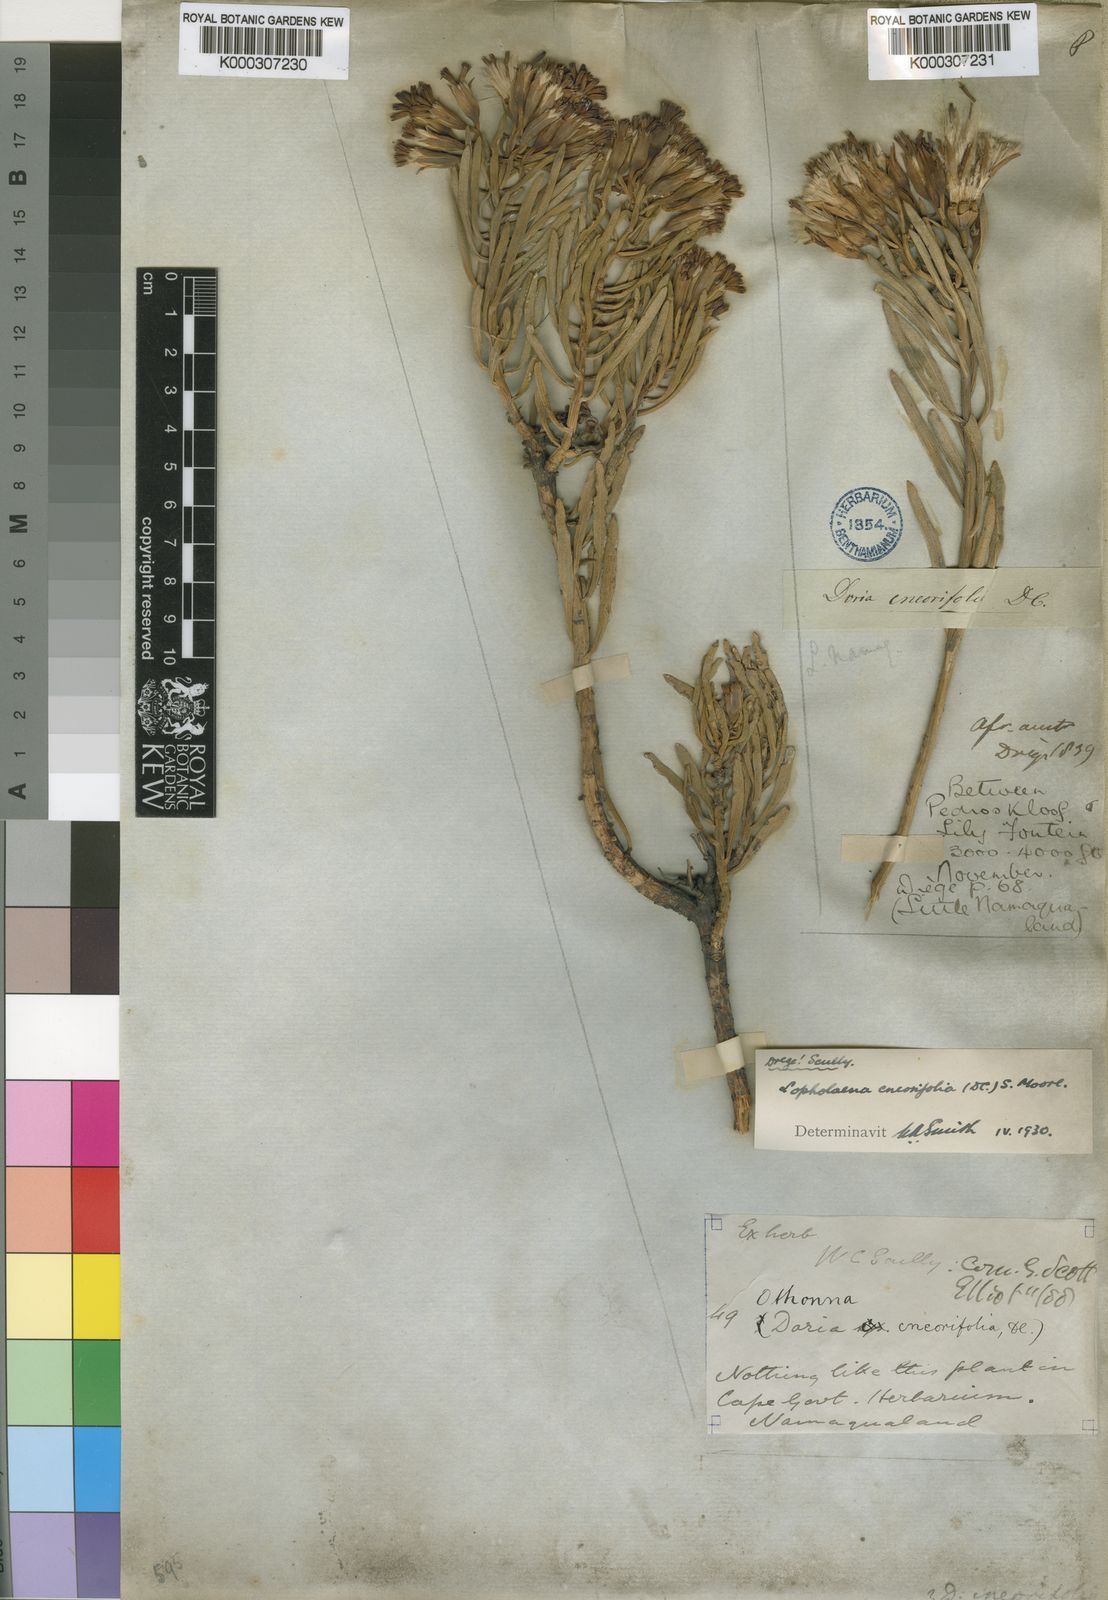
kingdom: Plantae
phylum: Tracheophyta
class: Magnoliopsida
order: Asterales
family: Asteraceae
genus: Lopholaena
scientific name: Lopholaena cneorifolia
